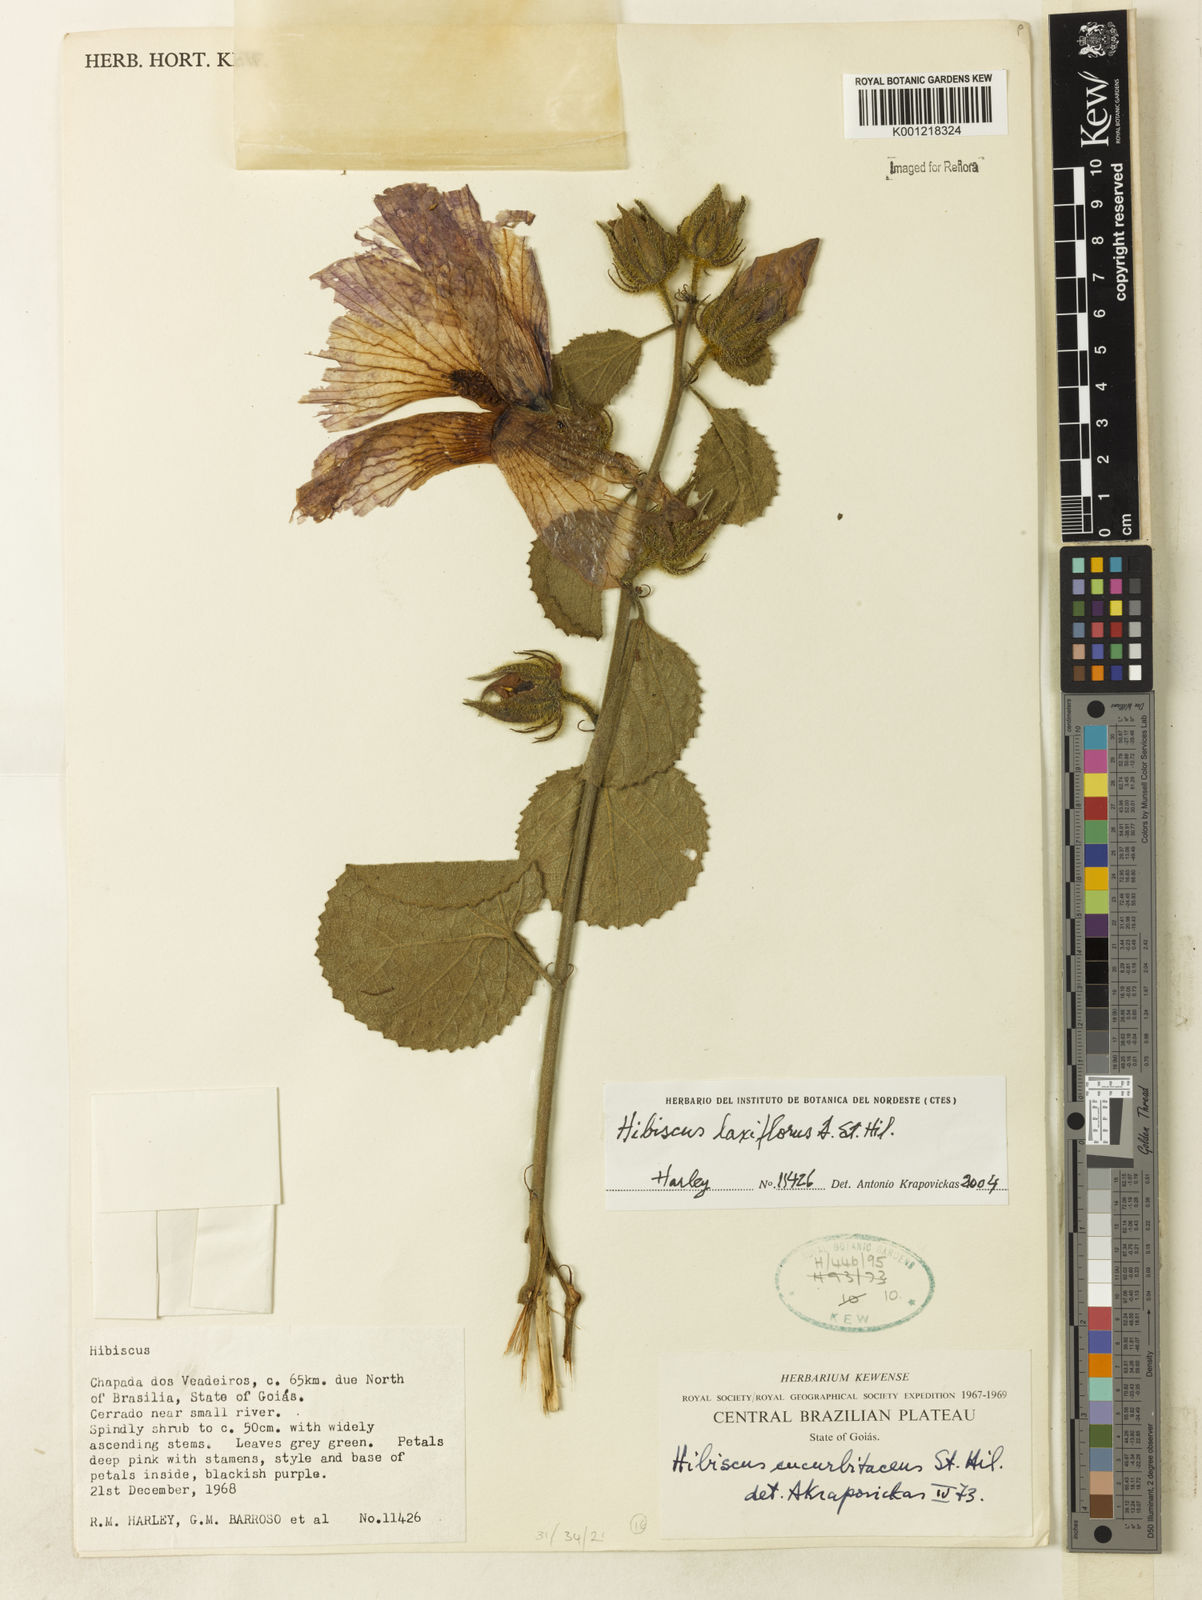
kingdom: Plantae
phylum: Tracheophyta
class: Magnoliopsida
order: Malvales
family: Malvaceae
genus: Hibiscus
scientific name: Hibiscus wilsonii
